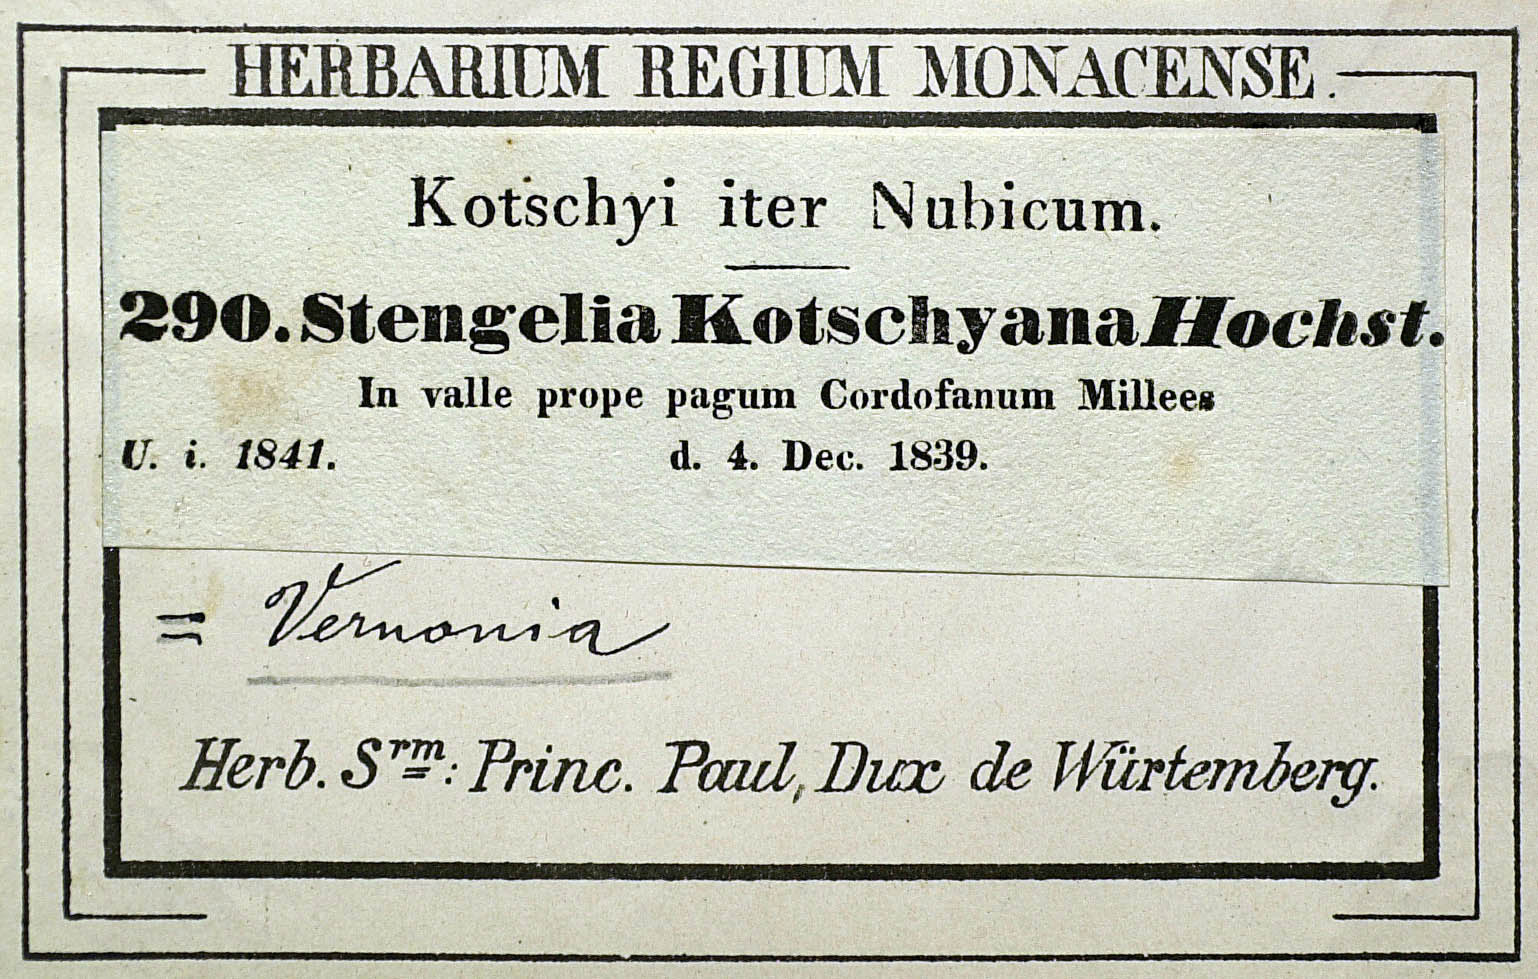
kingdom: Plantae
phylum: Tracheophyta
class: Magnoliopsida
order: Asterales
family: Asteraceae
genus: Baccharoides
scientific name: Baccharoides adoensis
